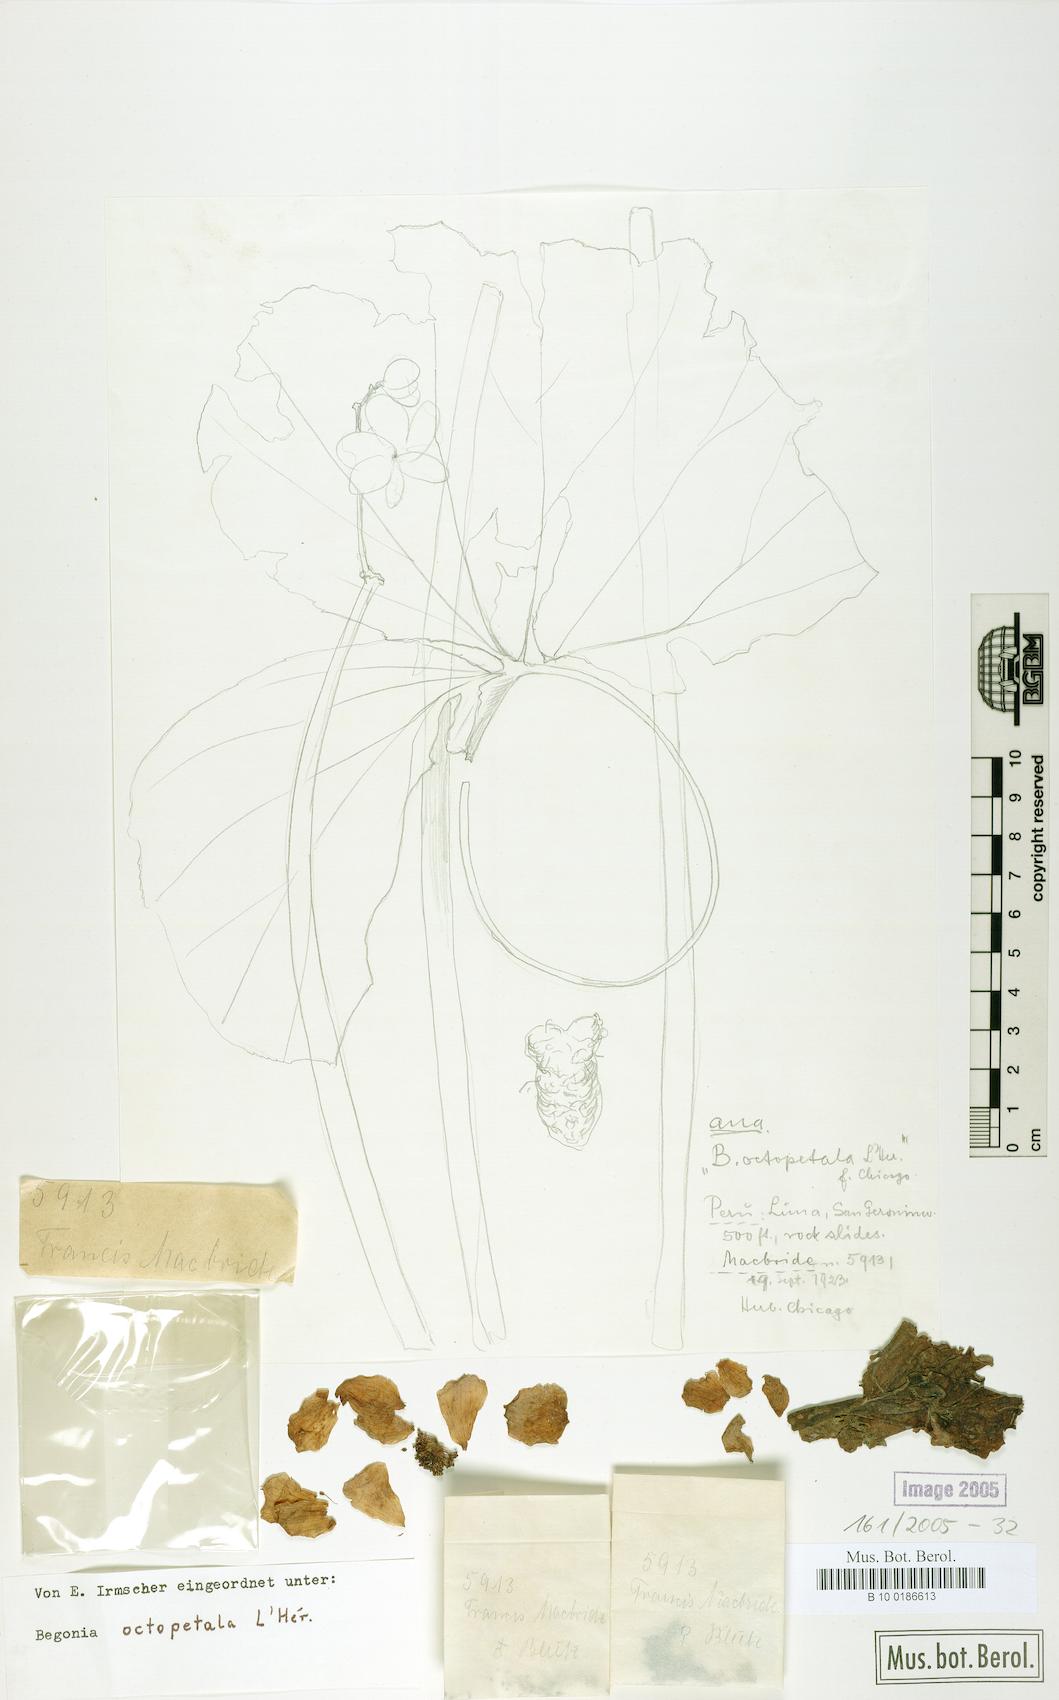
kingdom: Plantae
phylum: Tracheophyta
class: Magnoliopsida
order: Cucurbitales
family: Begoniaceae
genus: Begonia
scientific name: Begonia octopetala
